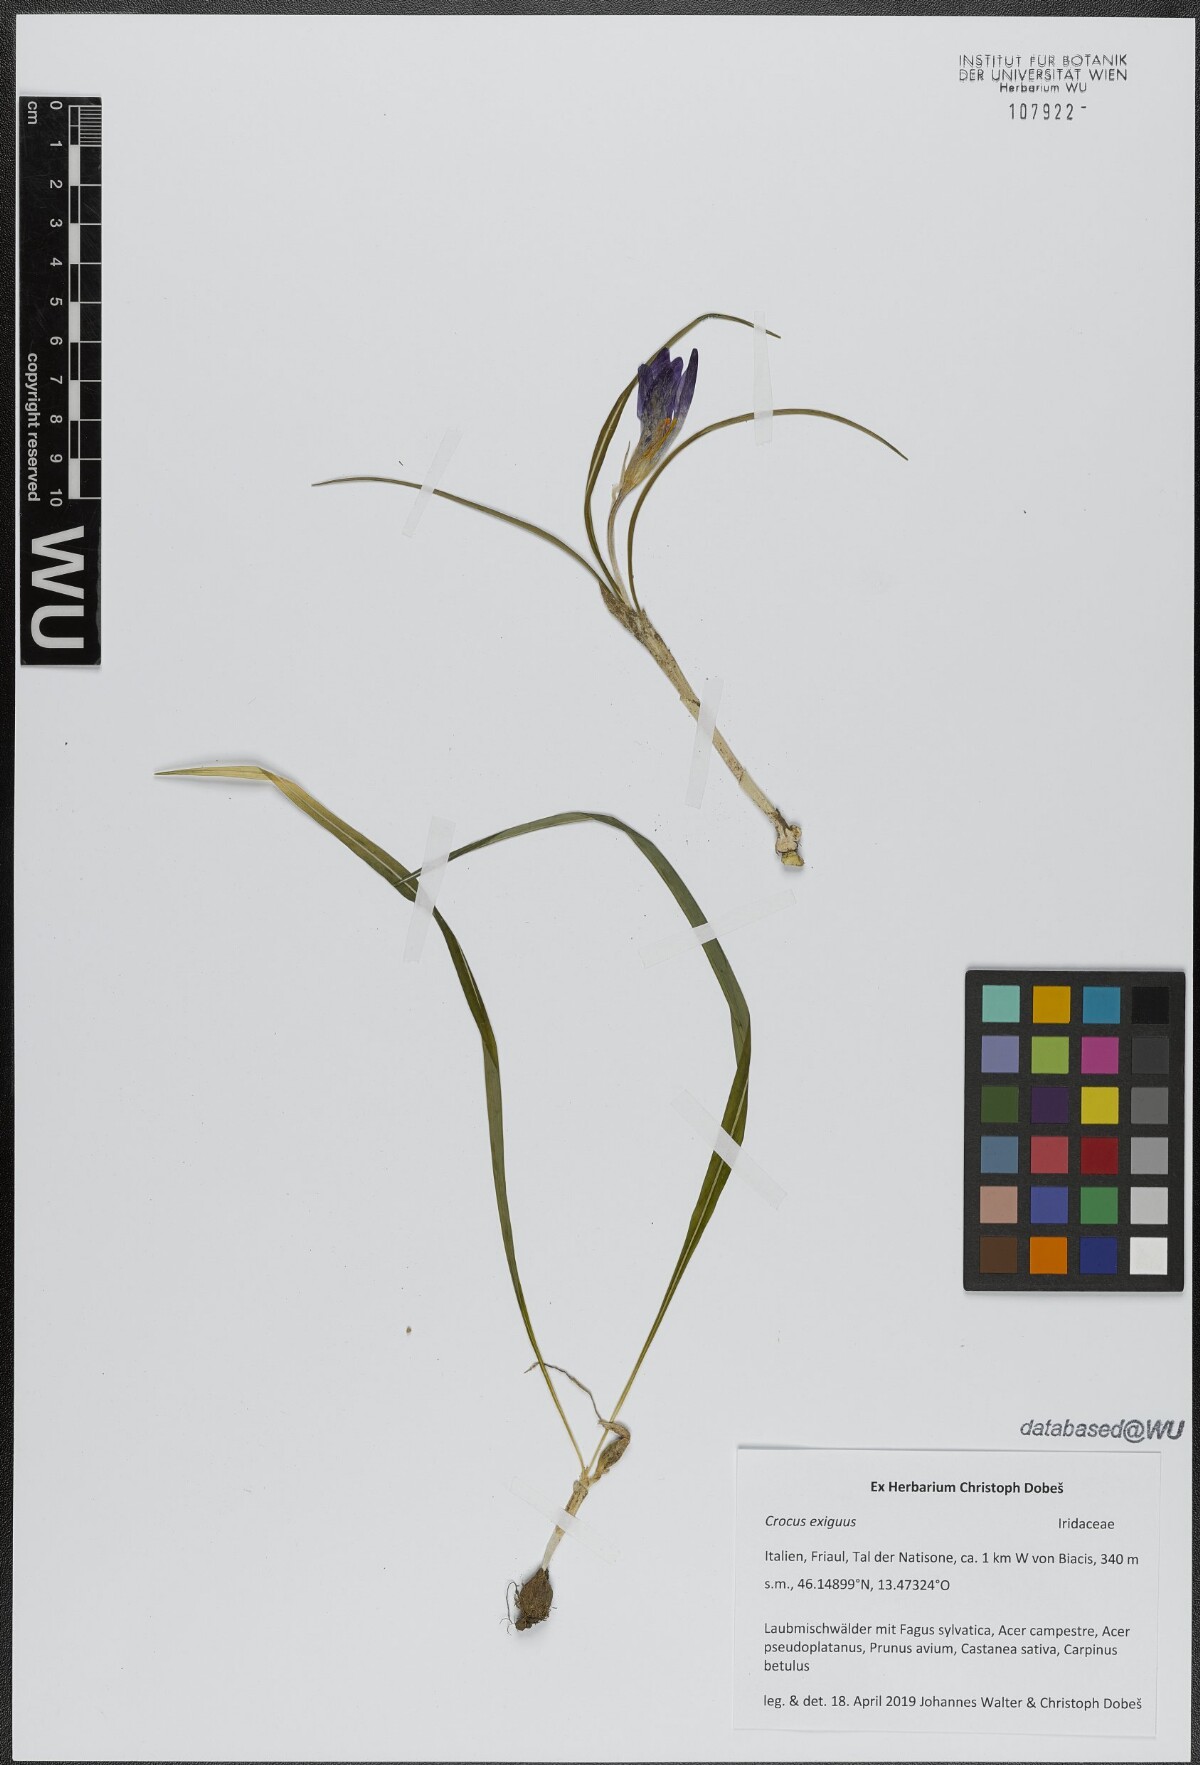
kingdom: Plantae
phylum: Tracheophyta
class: Liliopsida
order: Asparagales
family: Iridaceae
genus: Crocus
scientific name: Crocus heuffelianus
